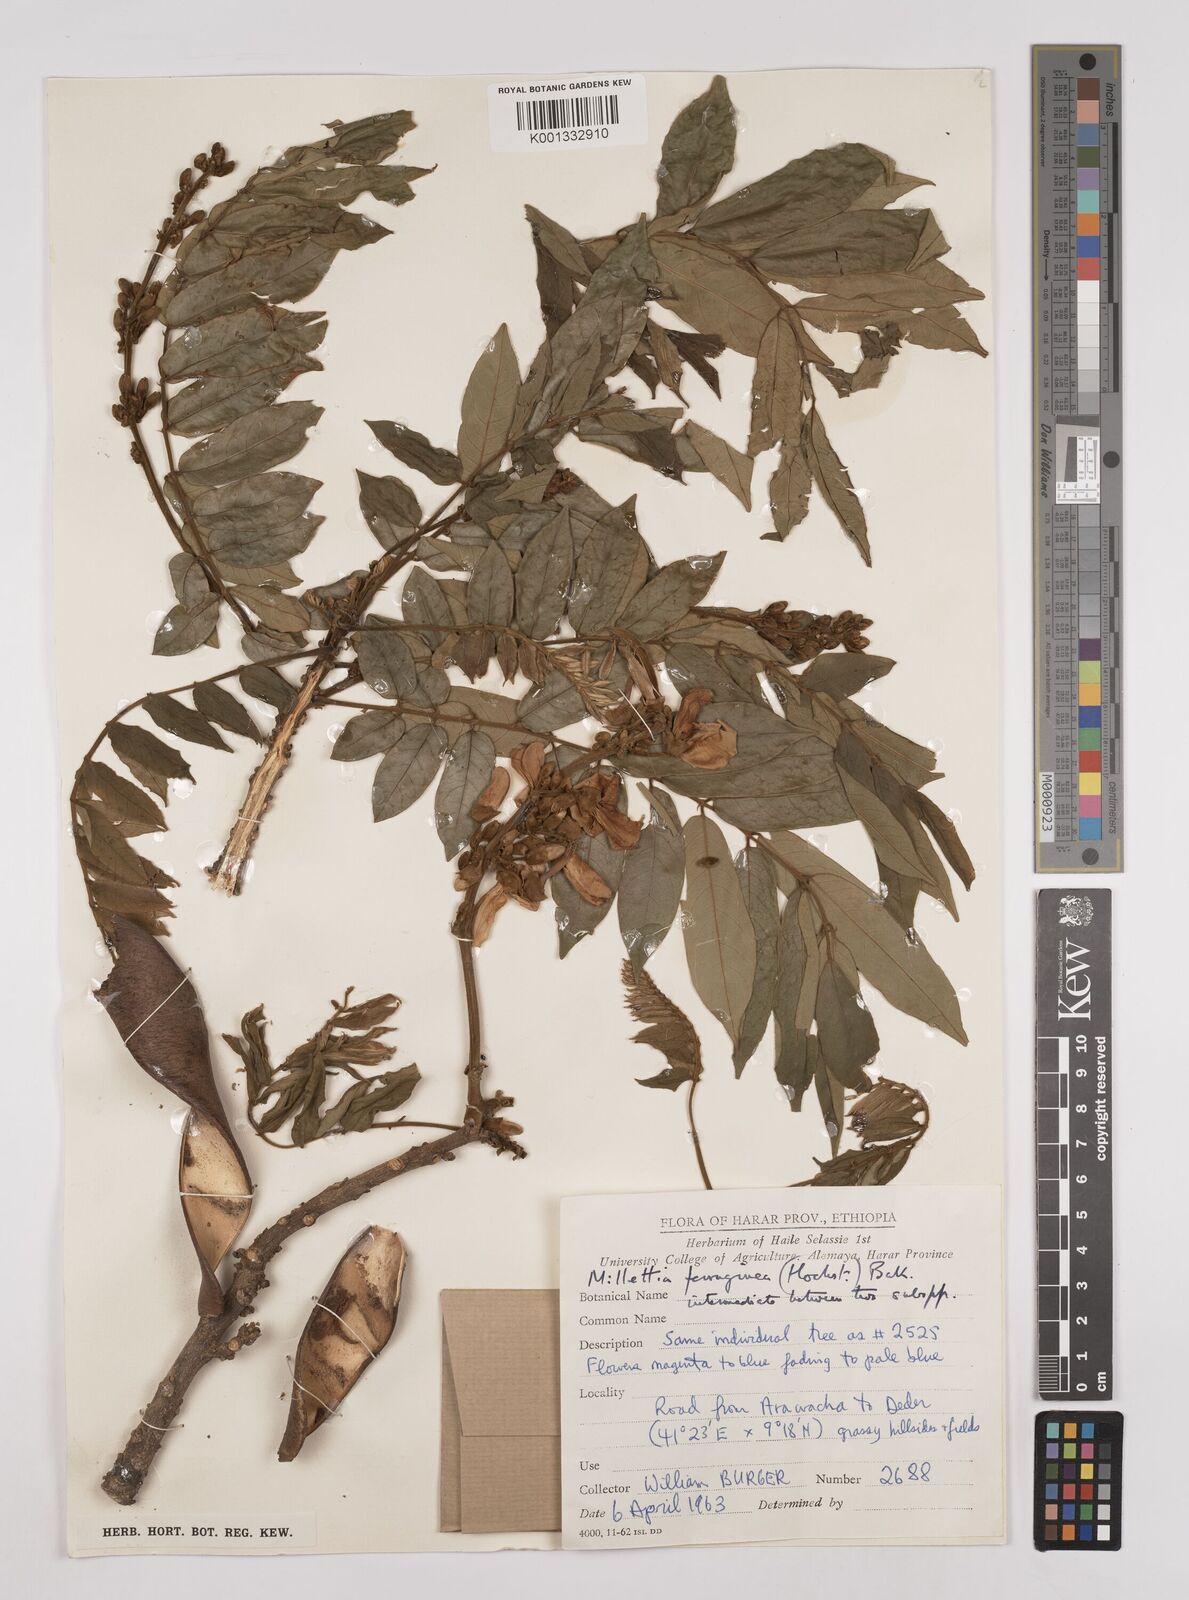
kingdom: Plantae
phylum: Tracheophyta
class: Magnoliopsida
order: Fabales
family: Fabaceae
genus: Millettia
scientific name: Millettia ferruginea
